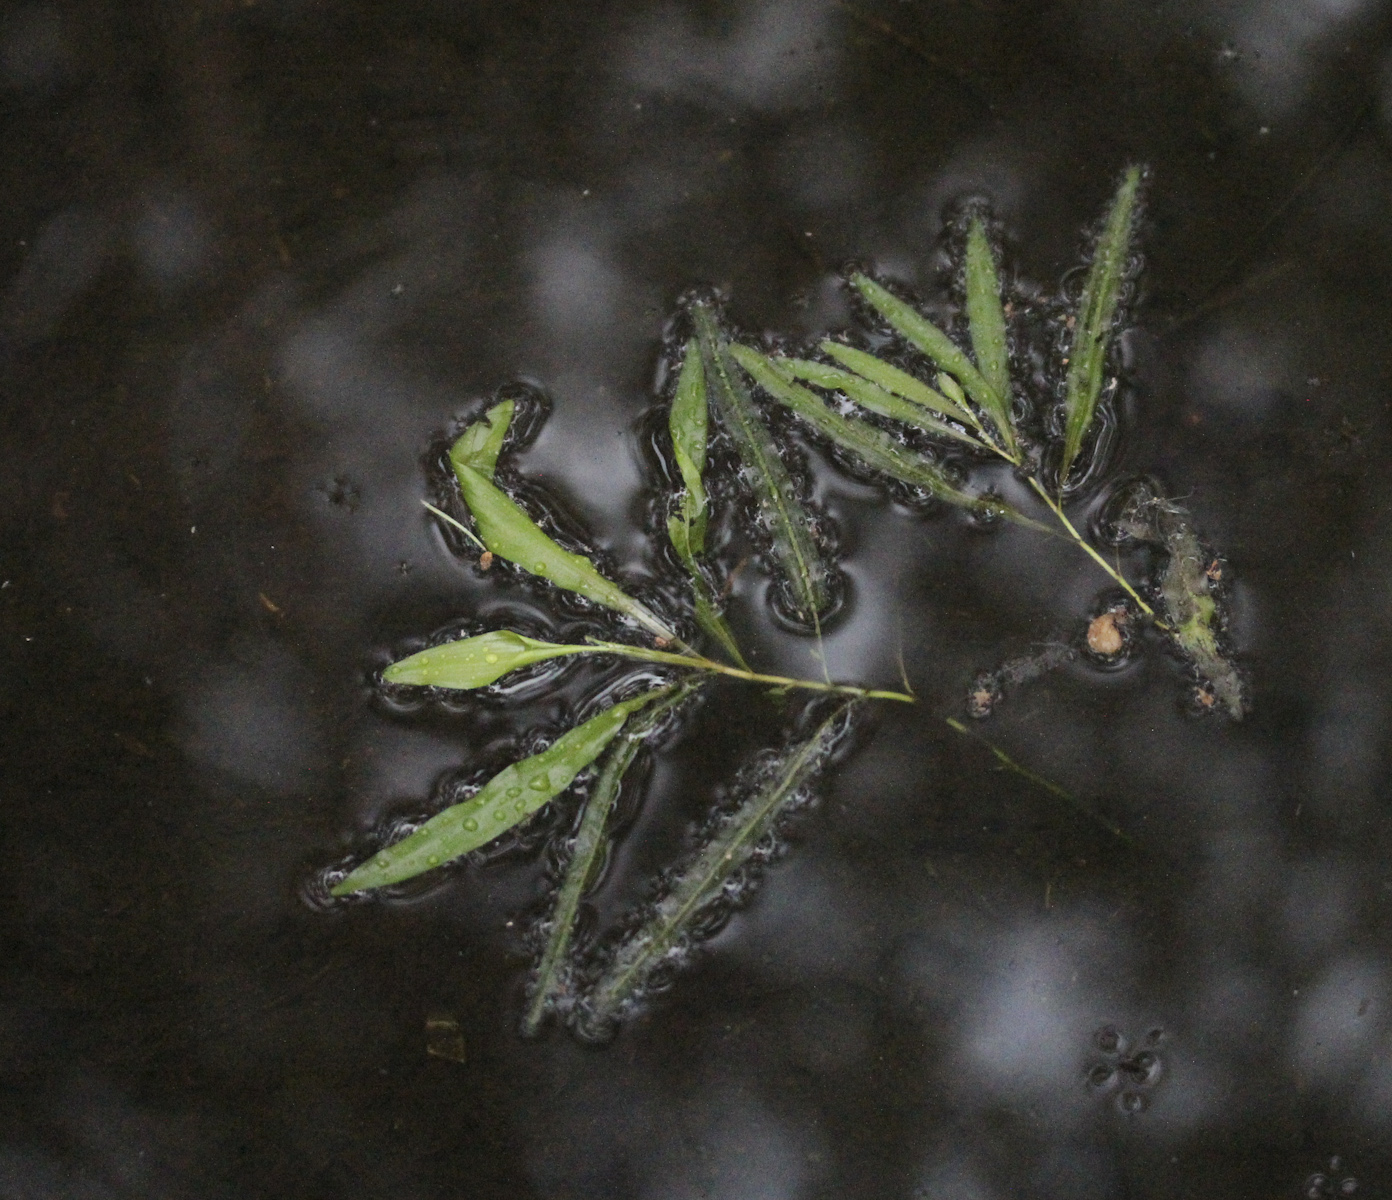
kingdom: Plantae
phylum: Tracheophyta
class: Liliopsida
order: Alismatales
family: Potamogetonaceae
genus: Potamogeton
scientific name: Potamogeton alpinus
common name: Red pondweed
